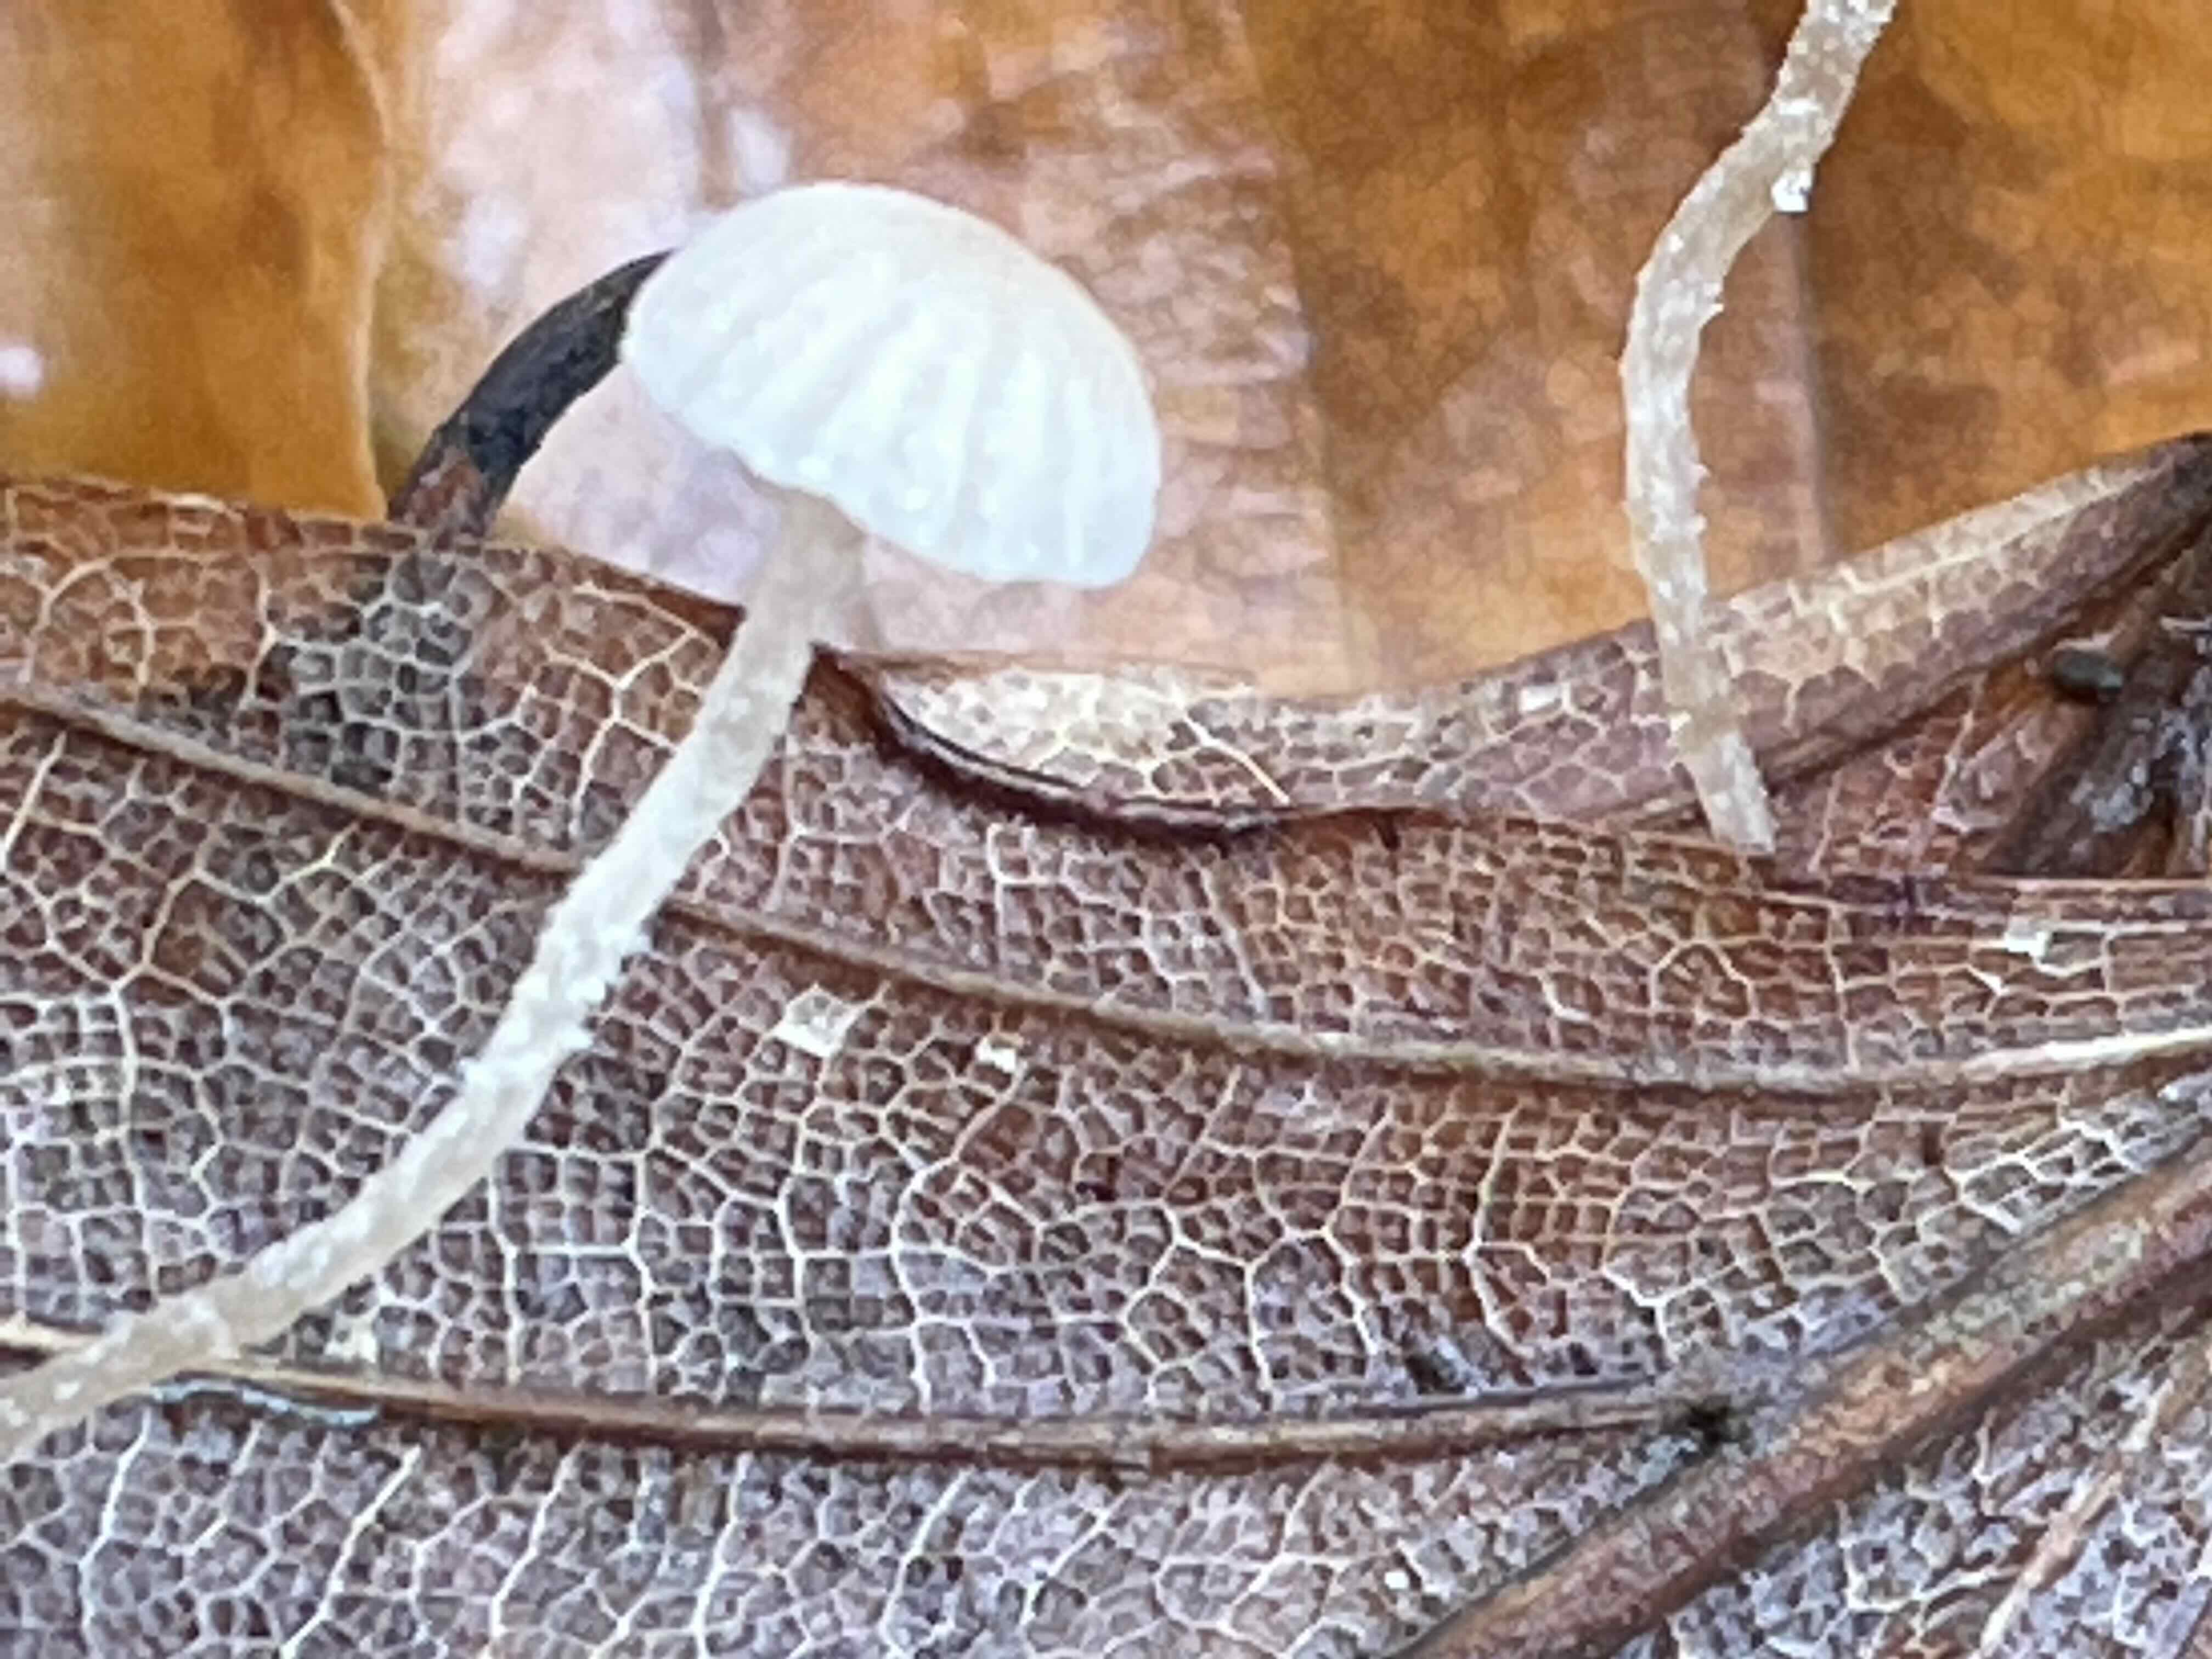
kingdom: Fungi
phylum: Basidiomycota
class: Agaricomycetes
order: Agaricales
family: Tubariaceae
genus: Flammulaster
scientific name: Flammulaster
